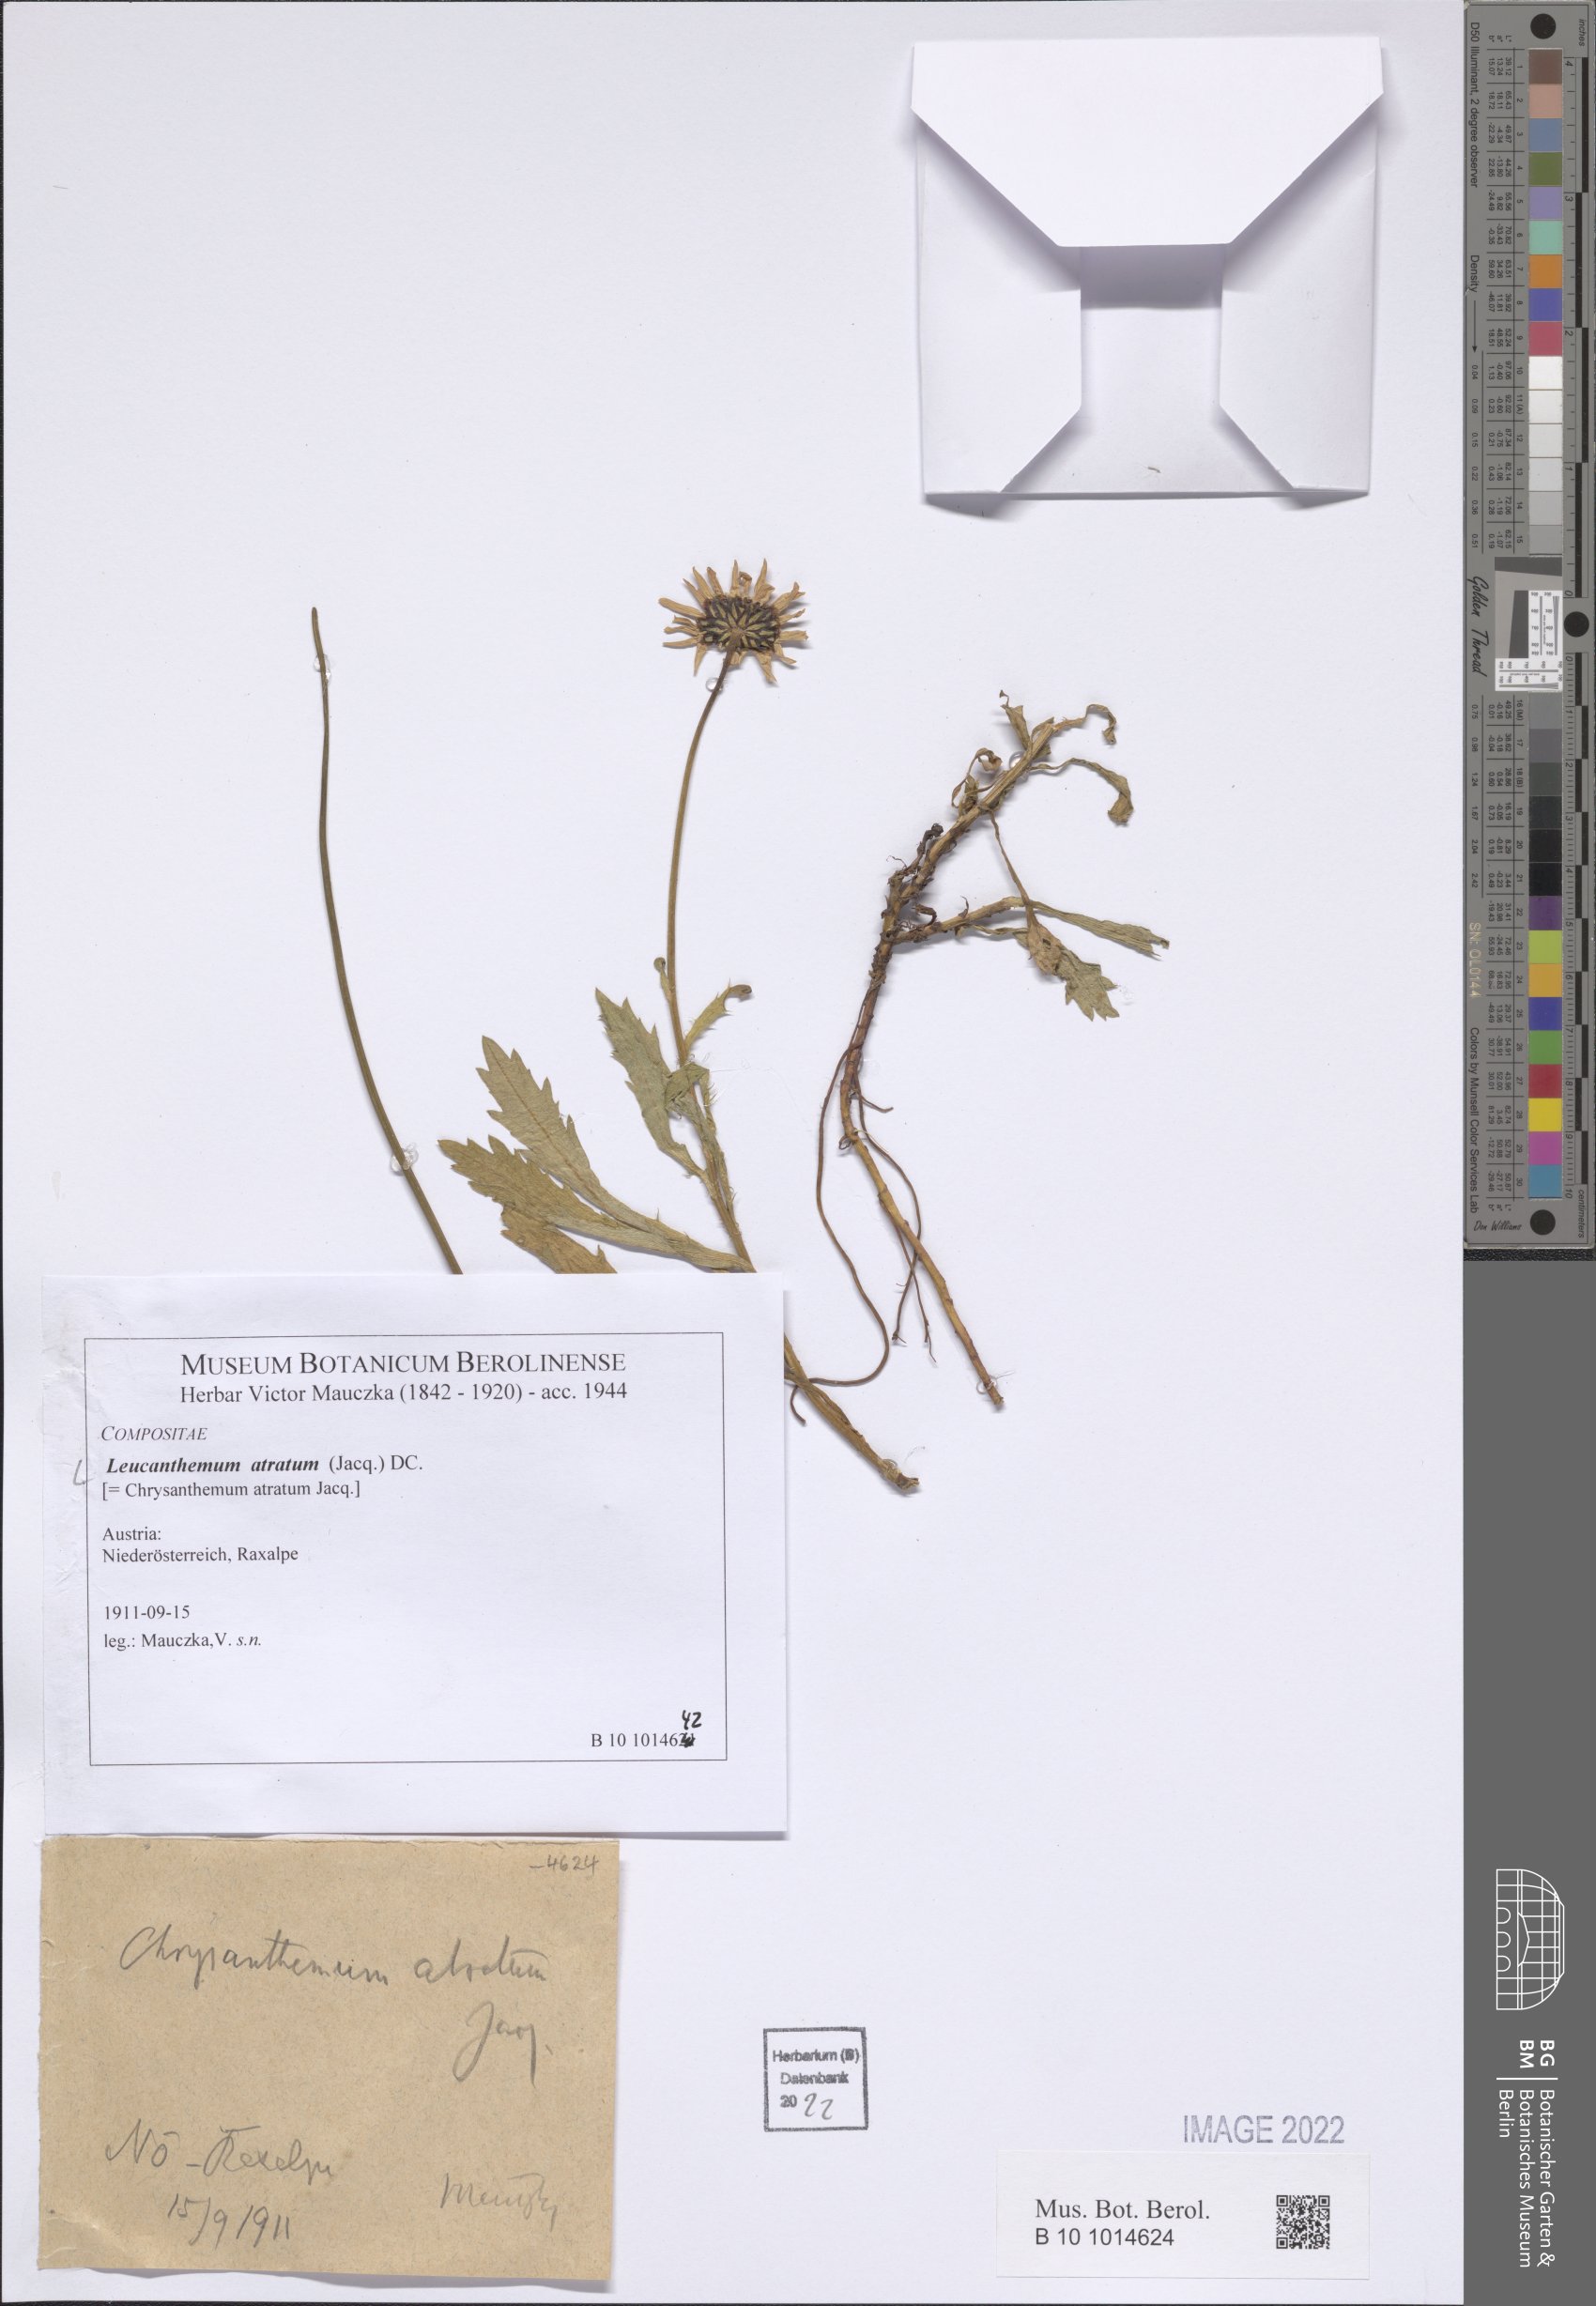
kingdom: Plantae
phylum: Tracheophyta
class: Magnoliopsida
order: Asterales
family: Asteraceae
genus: Leucanthemum
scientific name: Leucanthemum atratum
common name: Saw-leaved moon-daisy
